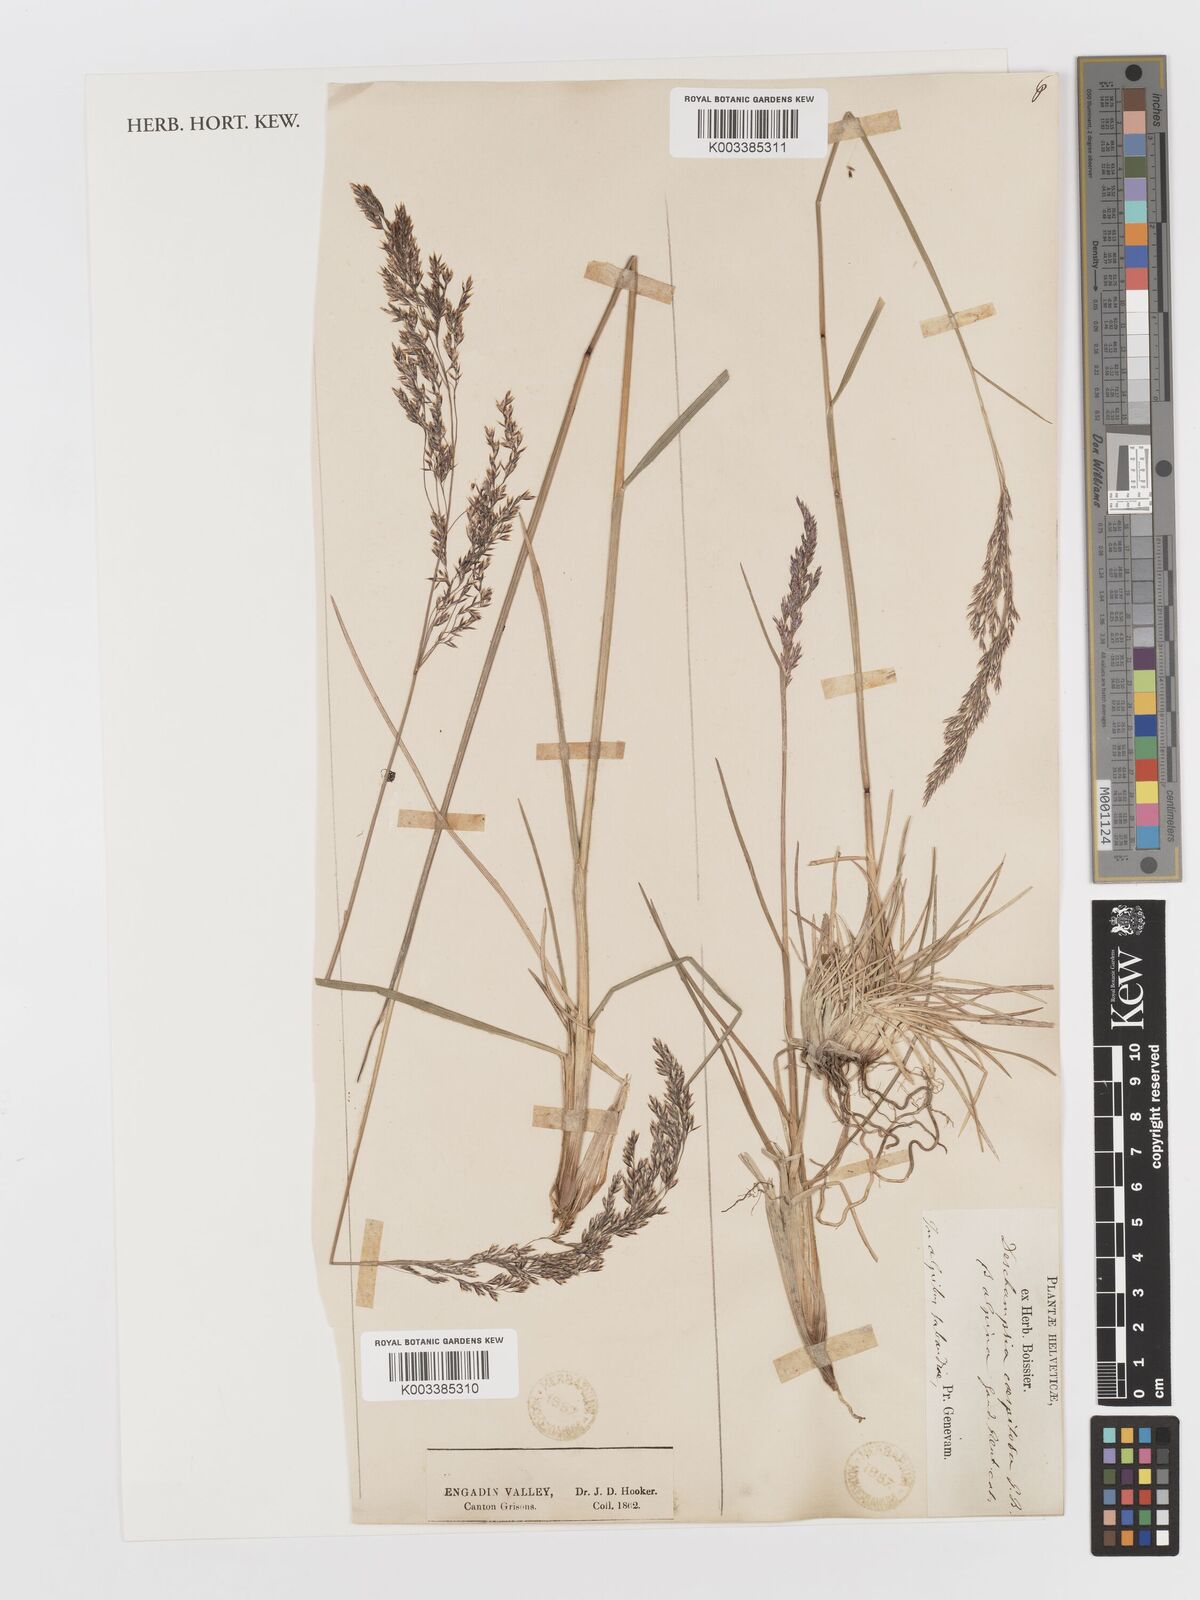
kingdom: Plantae
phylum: Tracheophyta
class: Liliopsida
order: Poales
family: Poaceae
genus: Deschampsia
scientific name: Deschampsia cespitosa
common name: Tufted hair-grass
